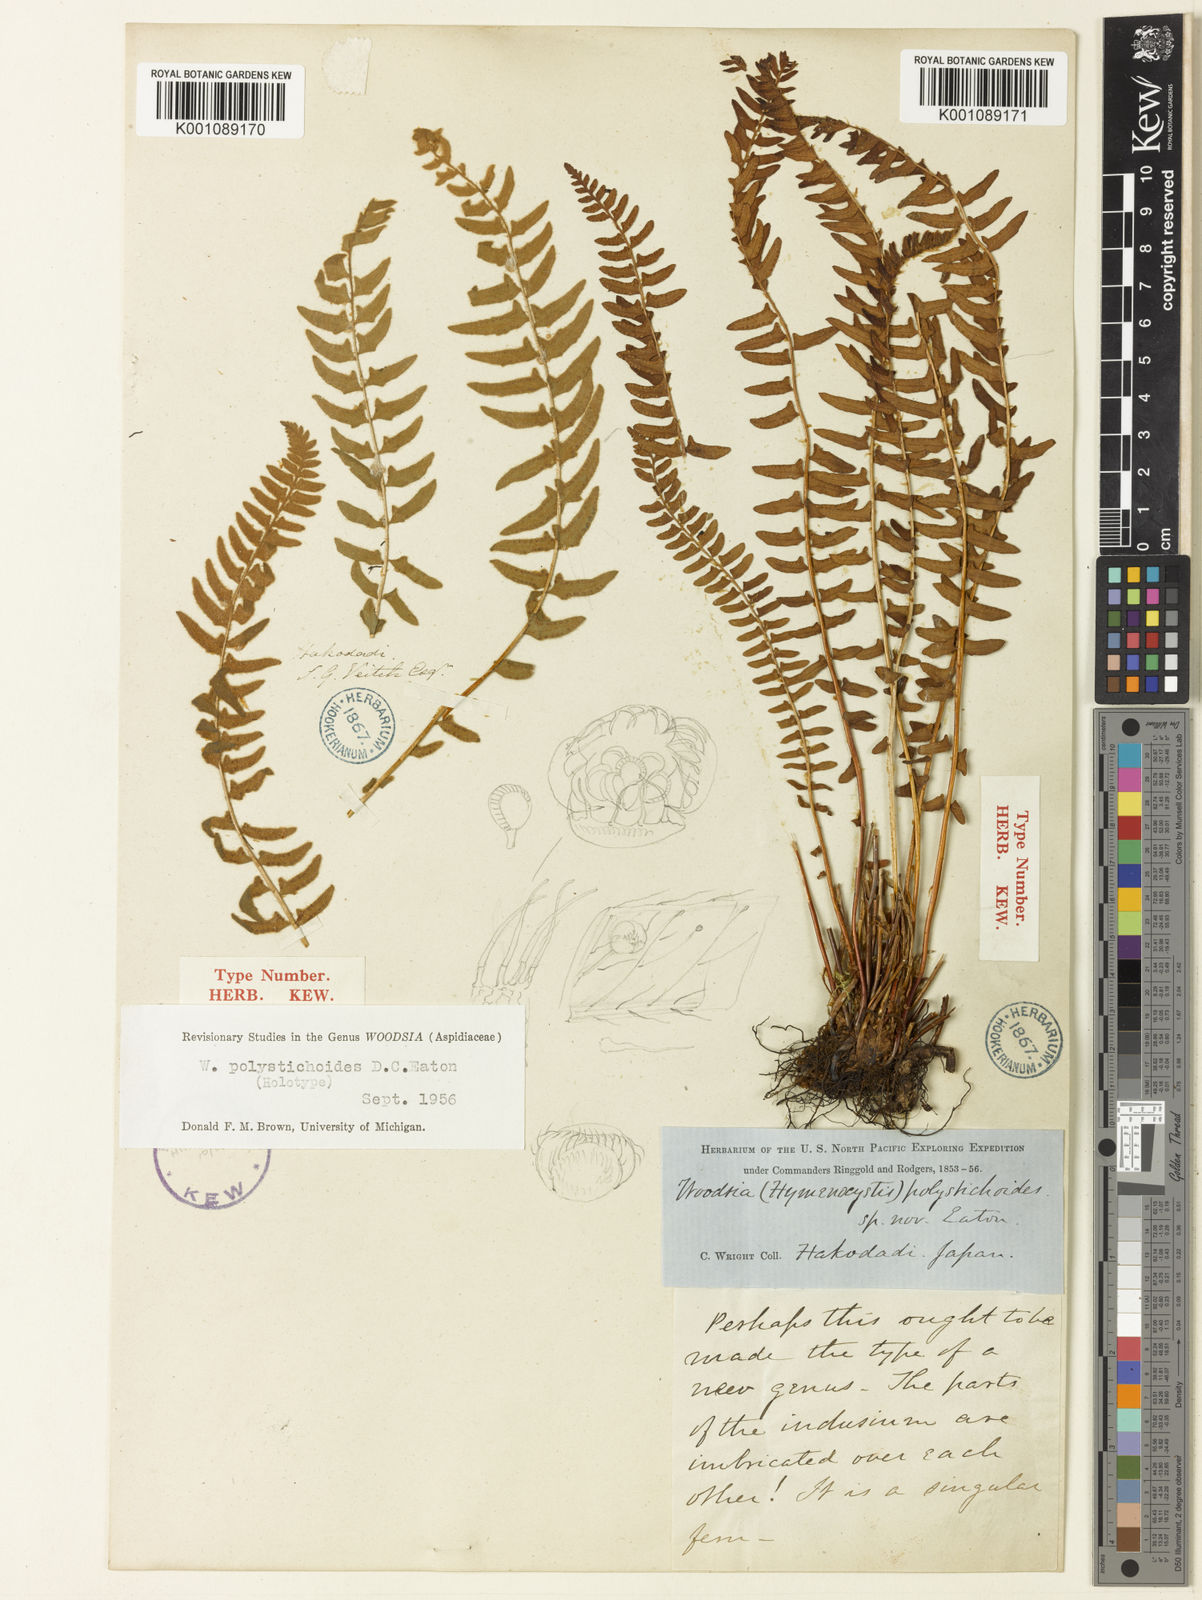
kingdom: Plantae
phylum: Tracheophyta
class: Polypodiopsida
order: Polypodiales
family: Woodsiaceae
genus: Woodsia
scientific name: Woodsia polystichoides
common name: Holly fern woodsia
